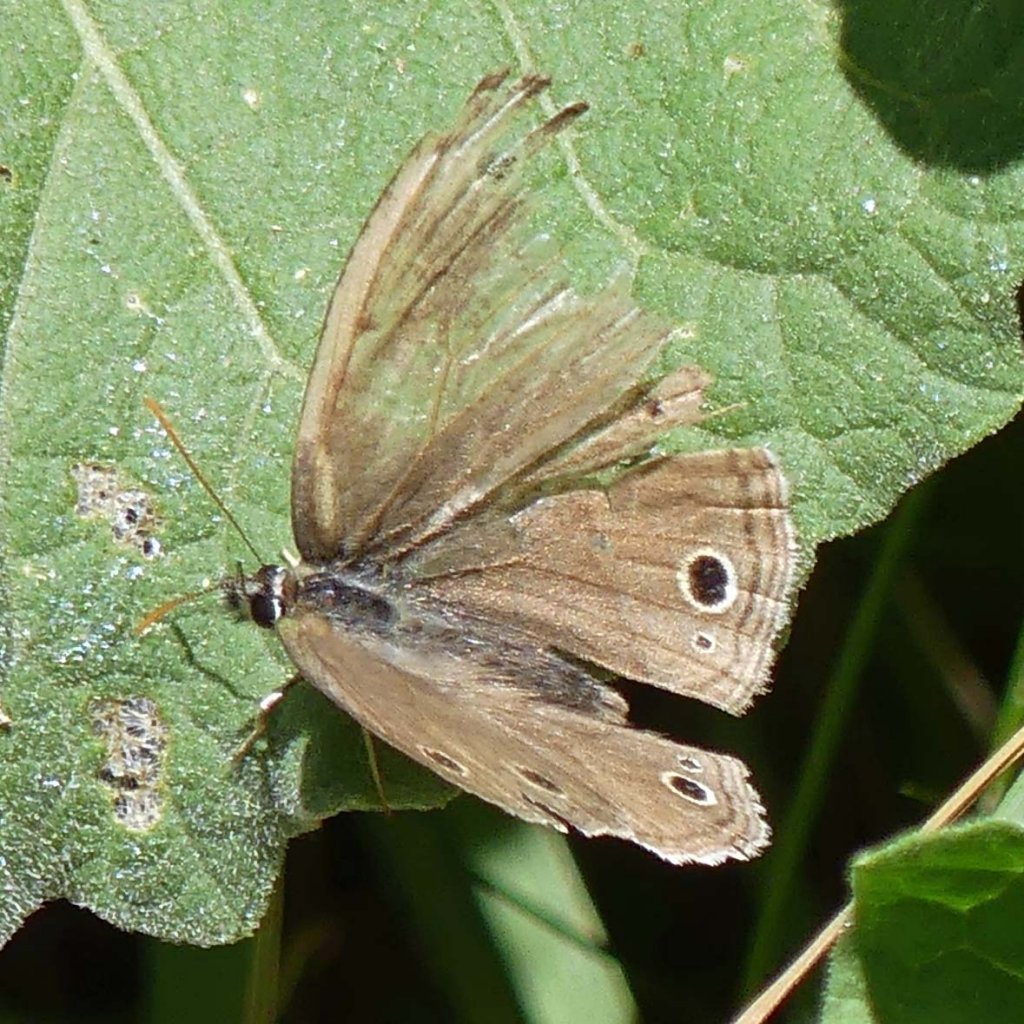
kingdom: Animalia
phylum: Arthropoda
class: Insecta
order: Lepidoptera
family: Nymphalidae
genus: Euptychia
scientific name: Euptychia cymela
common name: Little Wood Satyr
